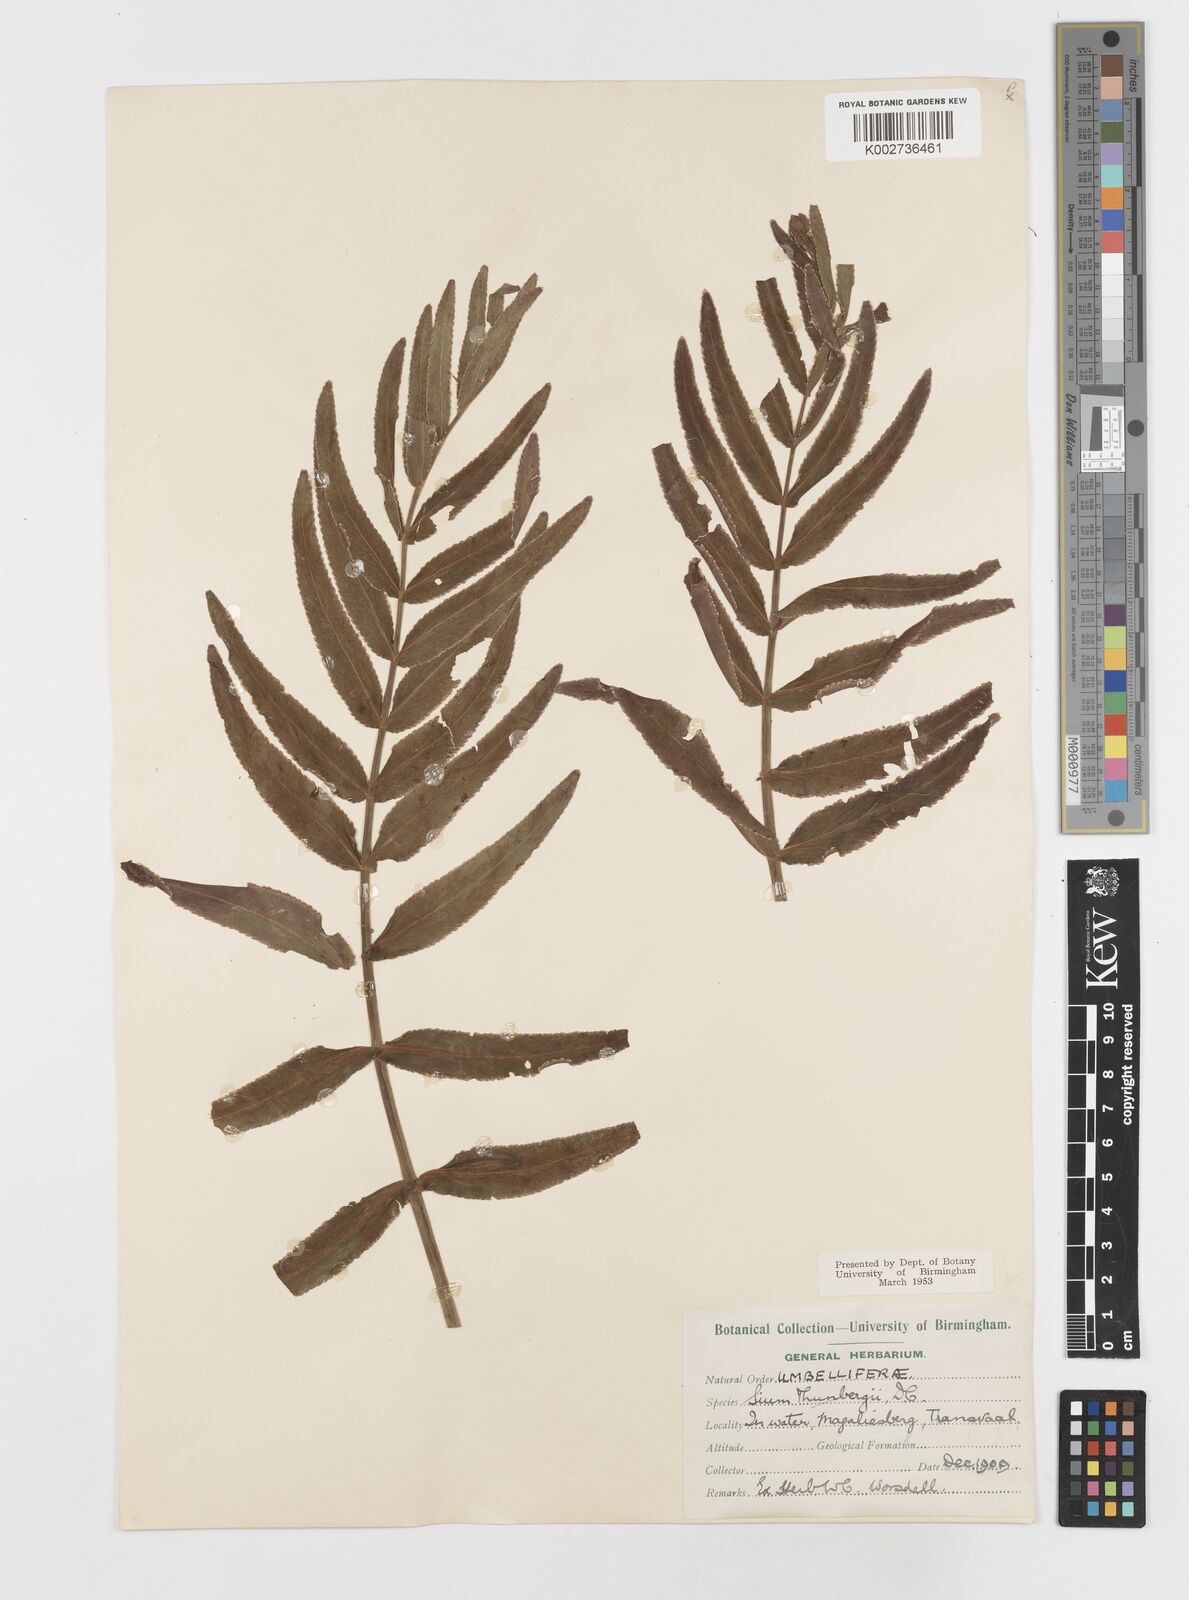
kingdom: Plantae
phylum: Tracheophyta
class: Magnoliopsida
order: Apiales
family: Apiaceae
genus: Berula
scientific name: Berula repanda
